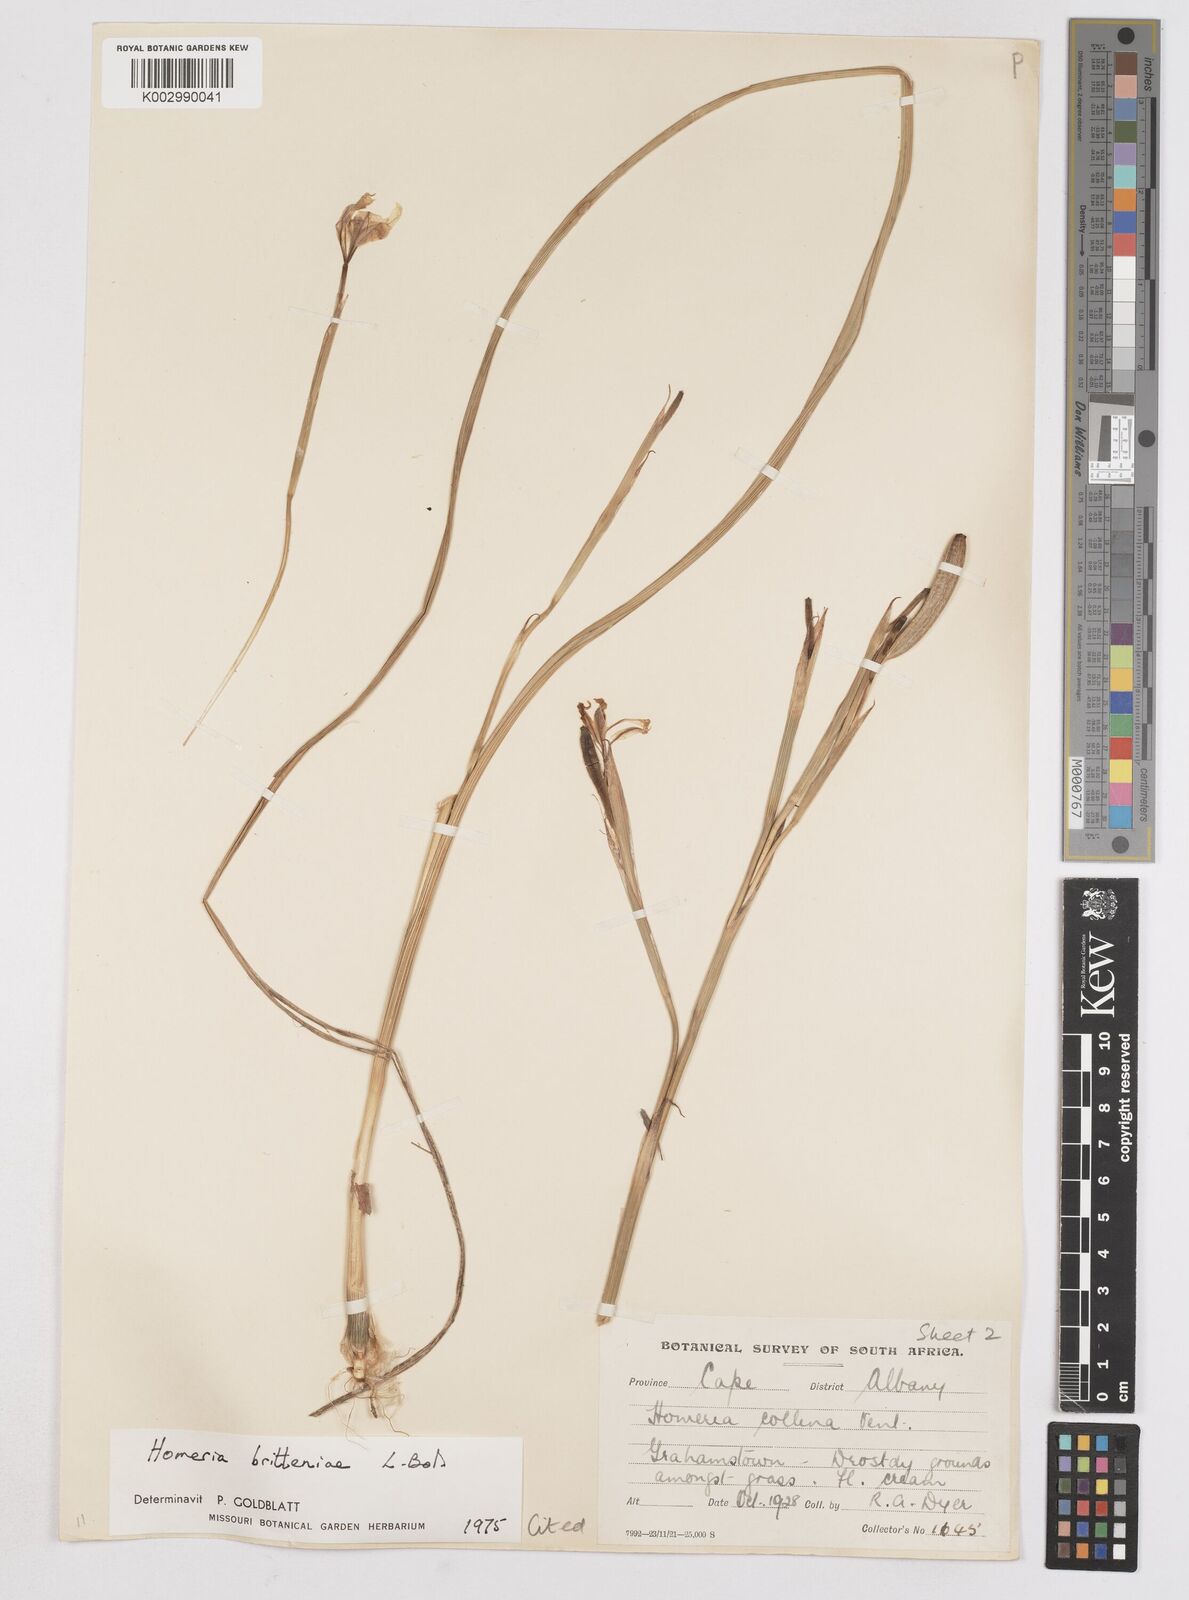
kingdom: Plantae
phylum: Tracheophyta
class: Liliopsida
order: Asparagales
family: Iridaceae
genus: Moraea
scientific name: Moraea britteniae
